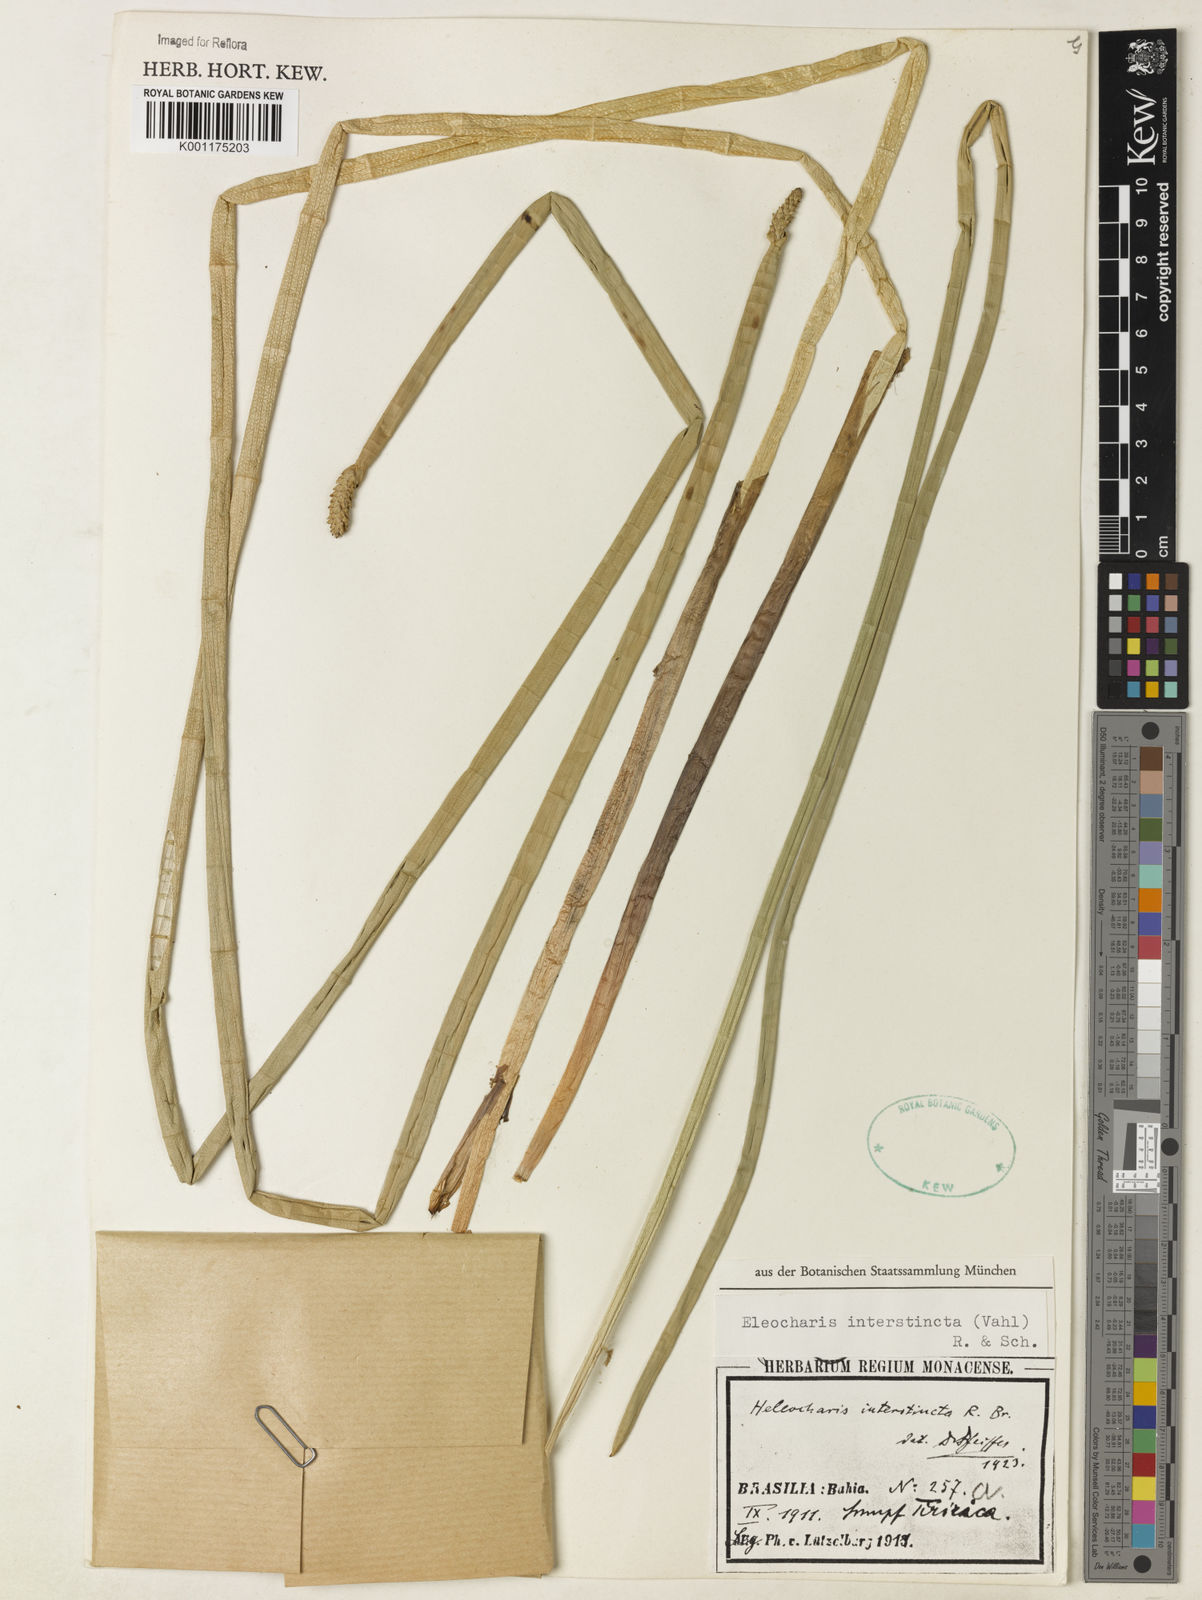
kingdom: Plantae
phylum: Tracheophyta
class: Liliopsida
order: Poales
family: Cyperaceae
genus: Eleocharis
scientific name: Eleocharis interstincta
